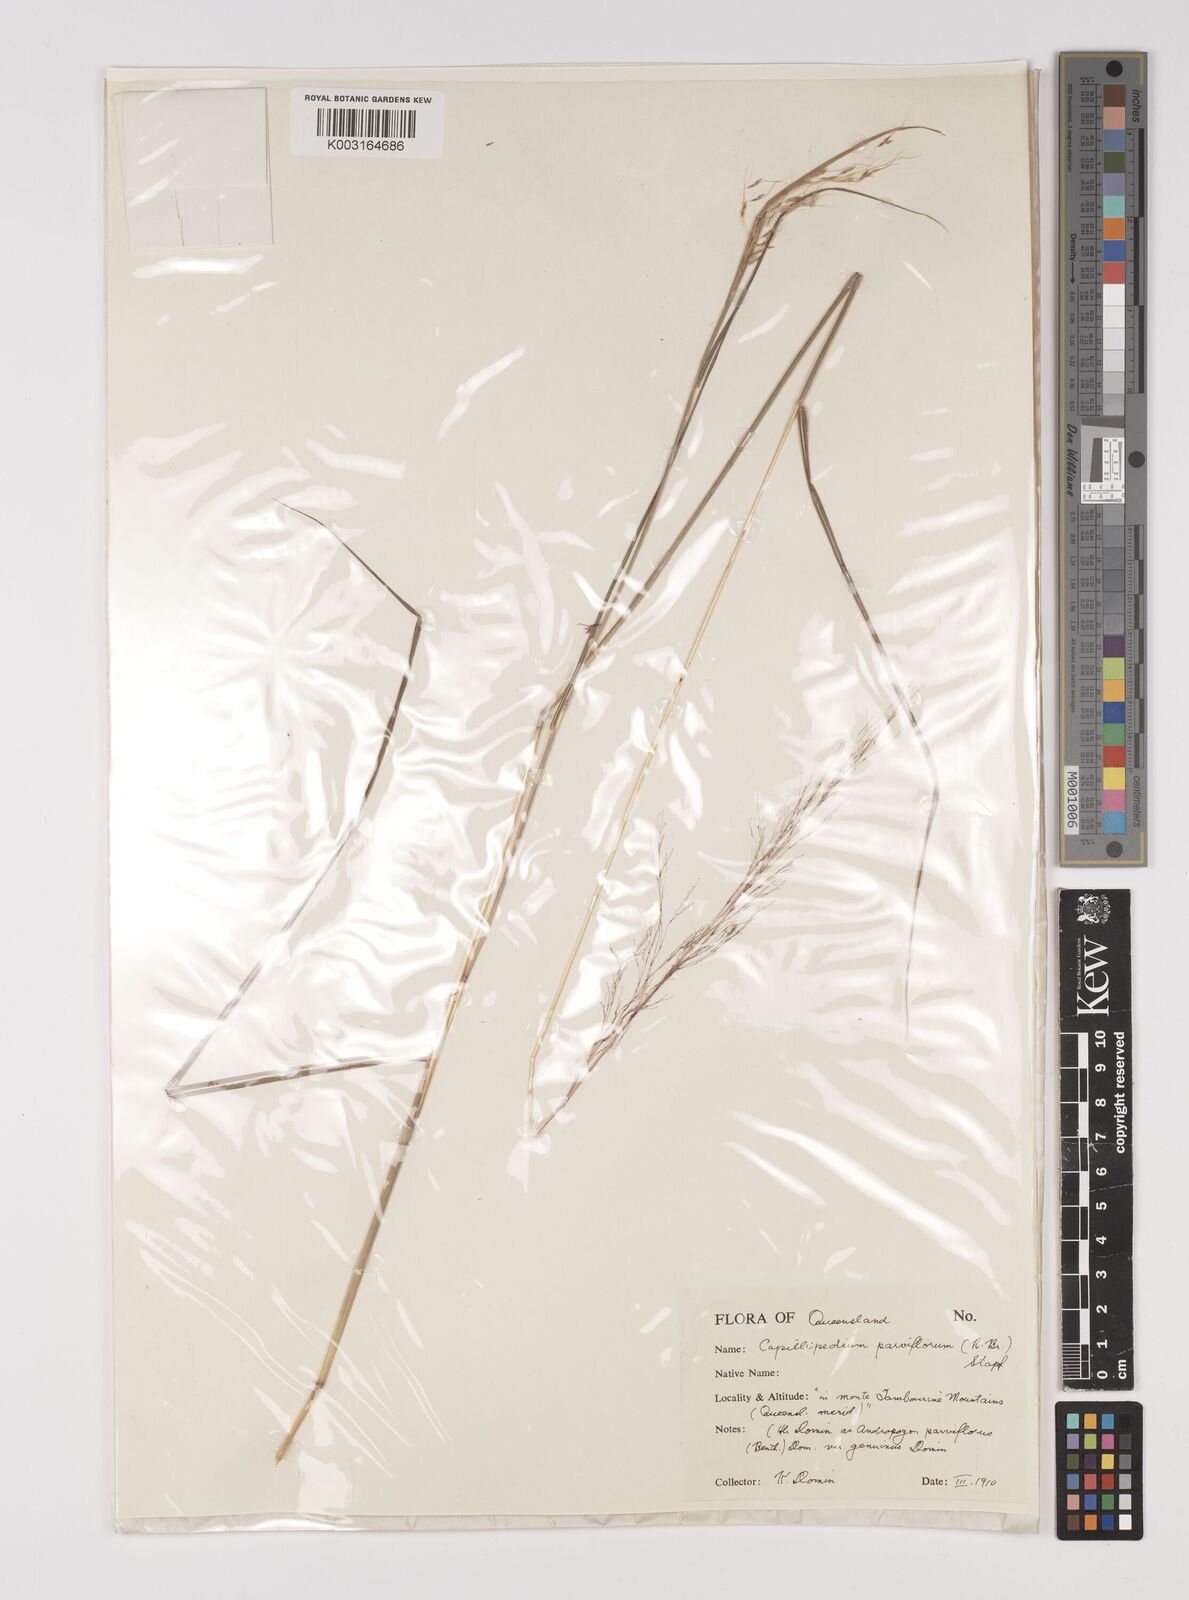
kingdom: Plantae
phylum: Tracheophyta
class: Liliopsida
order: Poales
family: Poaceae
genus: Capillipedium
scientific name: Capillipedium parviflorum
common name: Golden-beard
